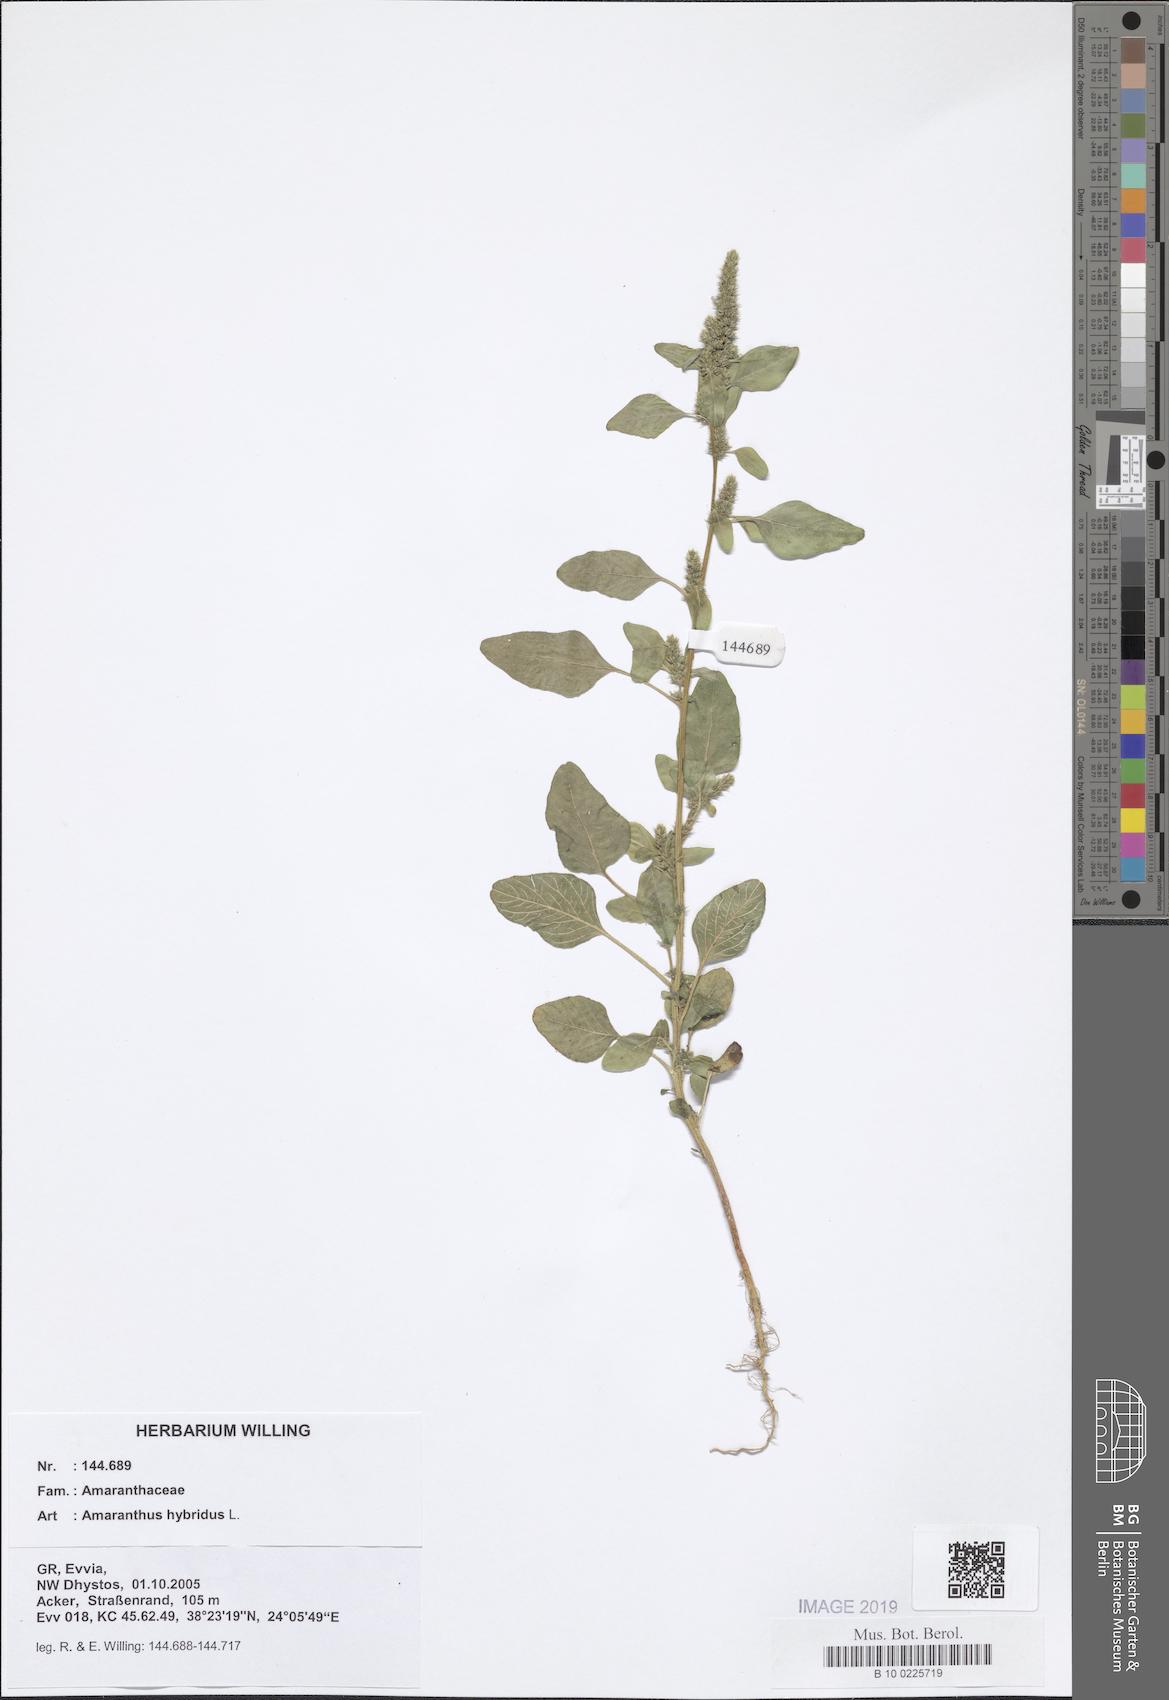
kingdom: Plantae
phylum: Tracheophyta
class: Magnoliopsida
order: Caryophyllales
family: Amaranthaceae
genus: Amaranthus
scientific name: Amaranthus hybridus
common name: Green amaranth
